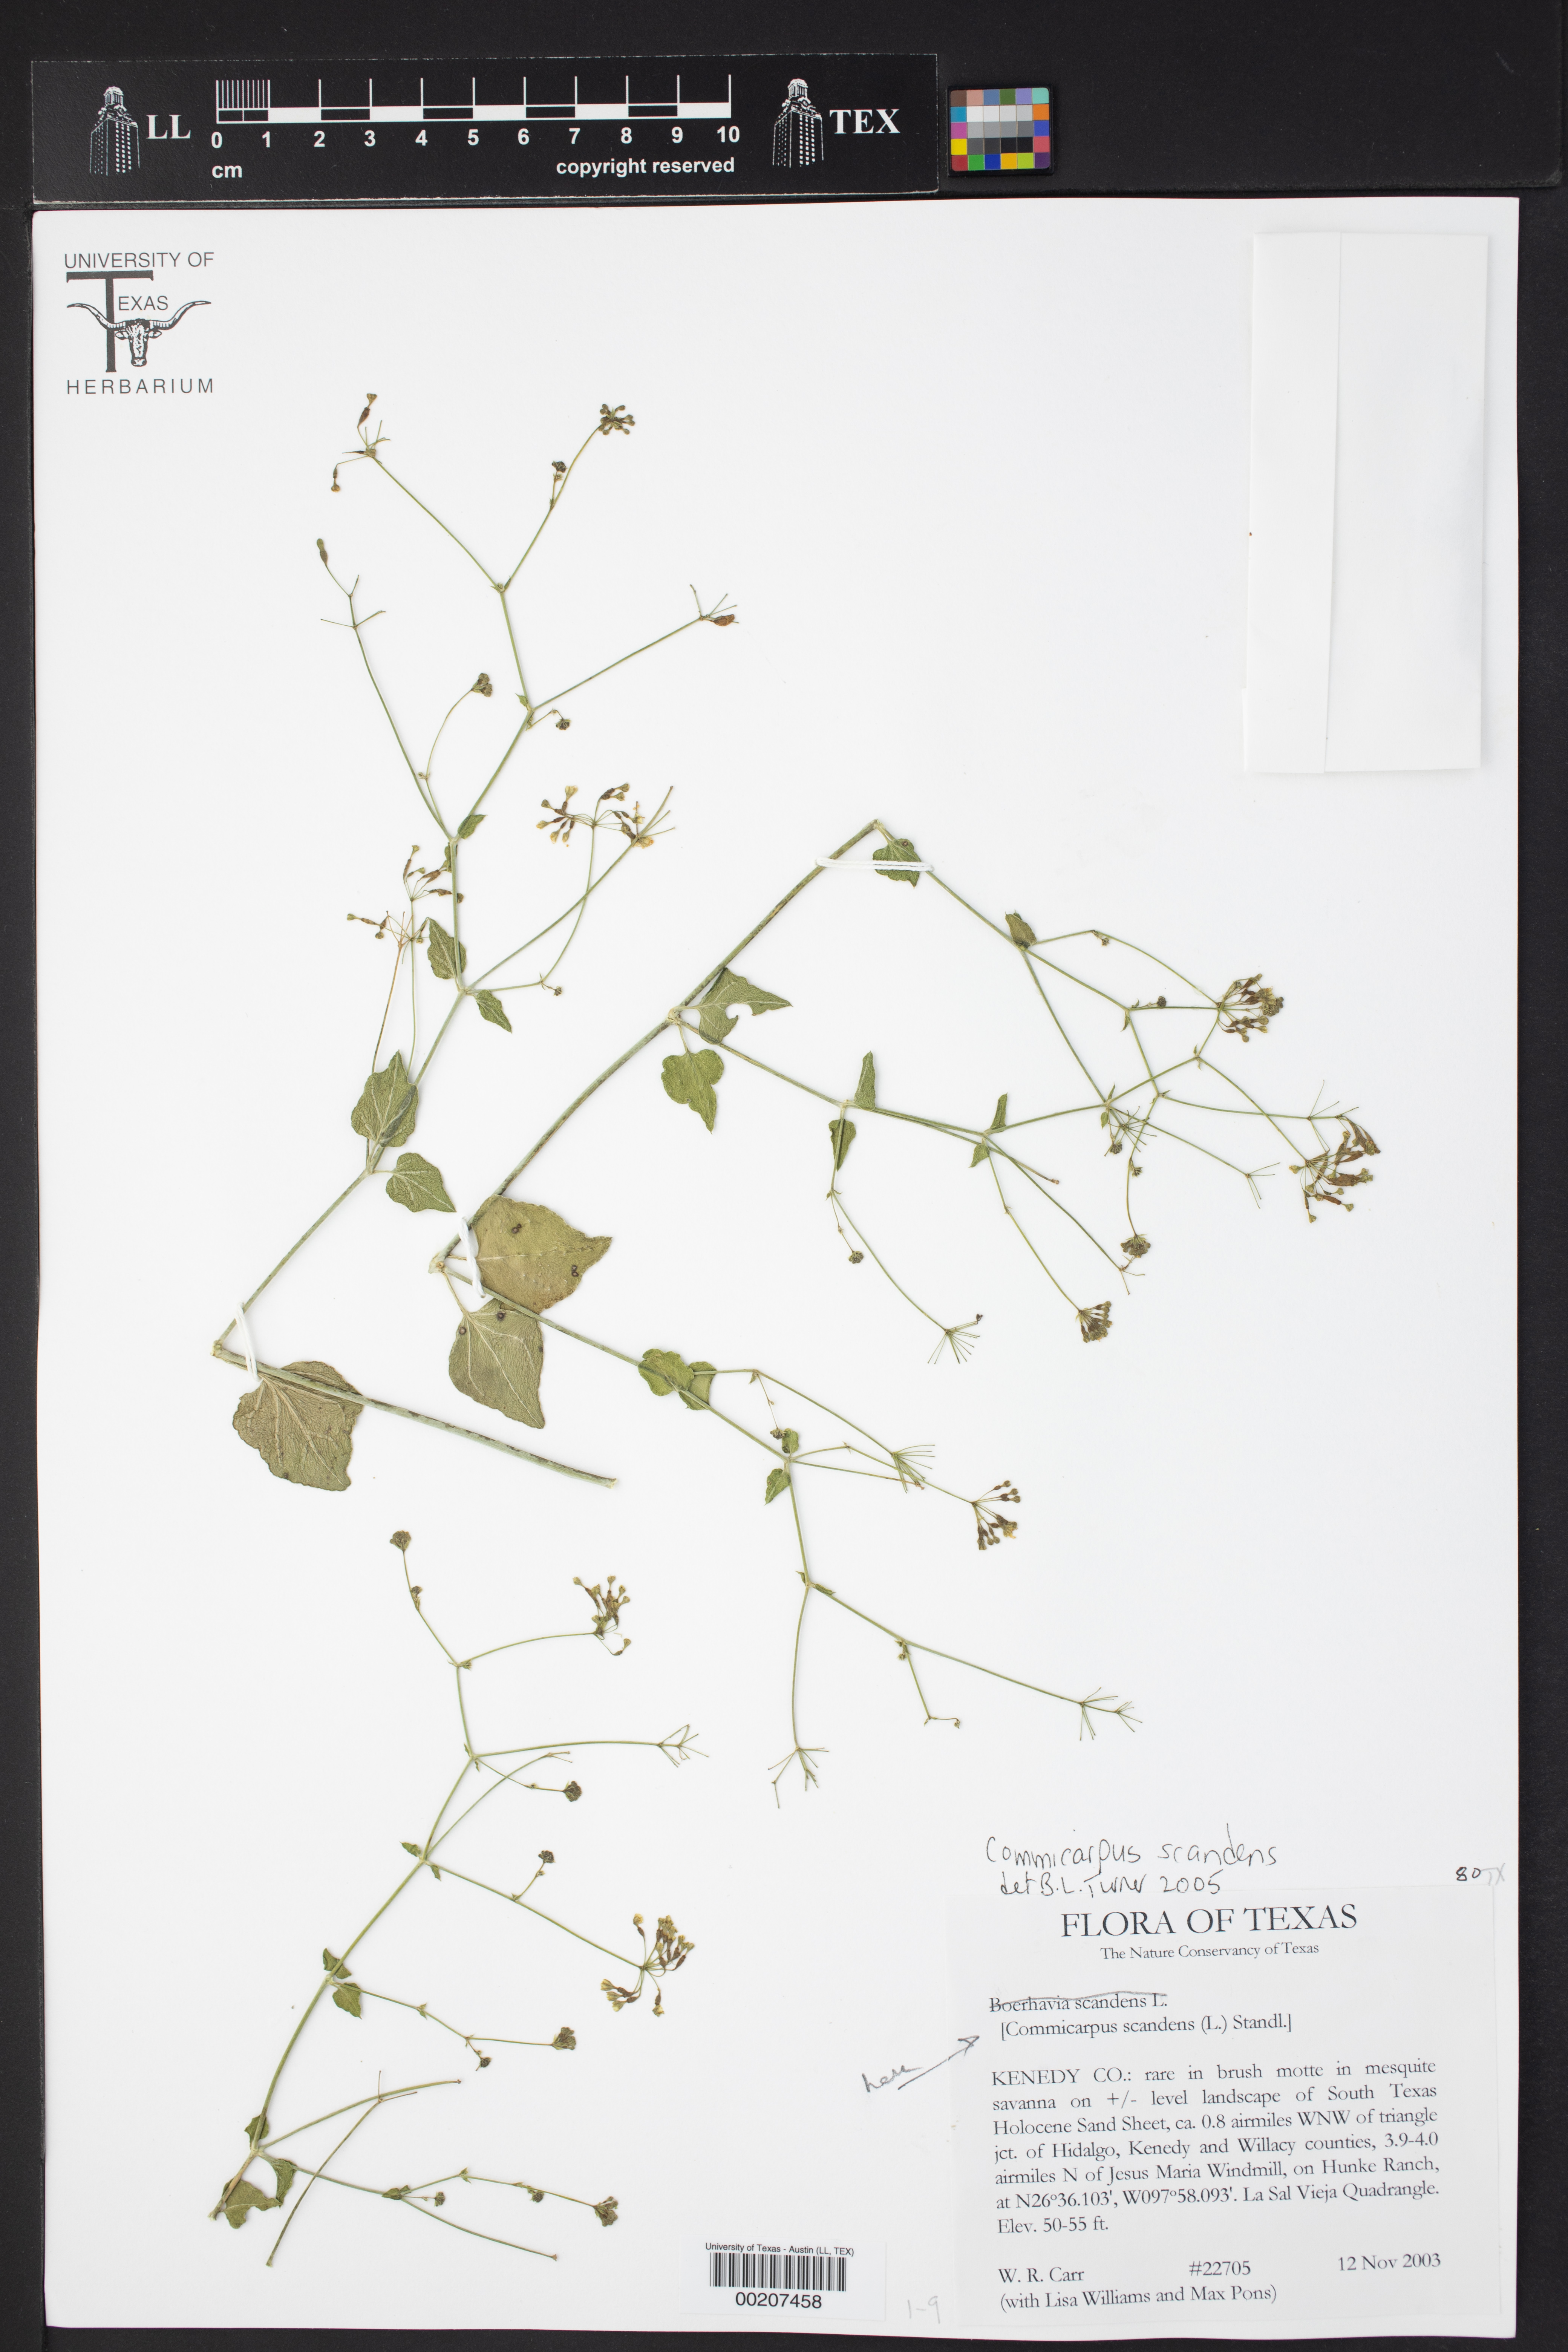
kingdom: Plantae
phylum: Tracheophyta
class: Magnoliopsida
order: Caryophyllales
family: Nyctaginaceae
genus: Commicarpus
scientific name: Commicarpus scandens
